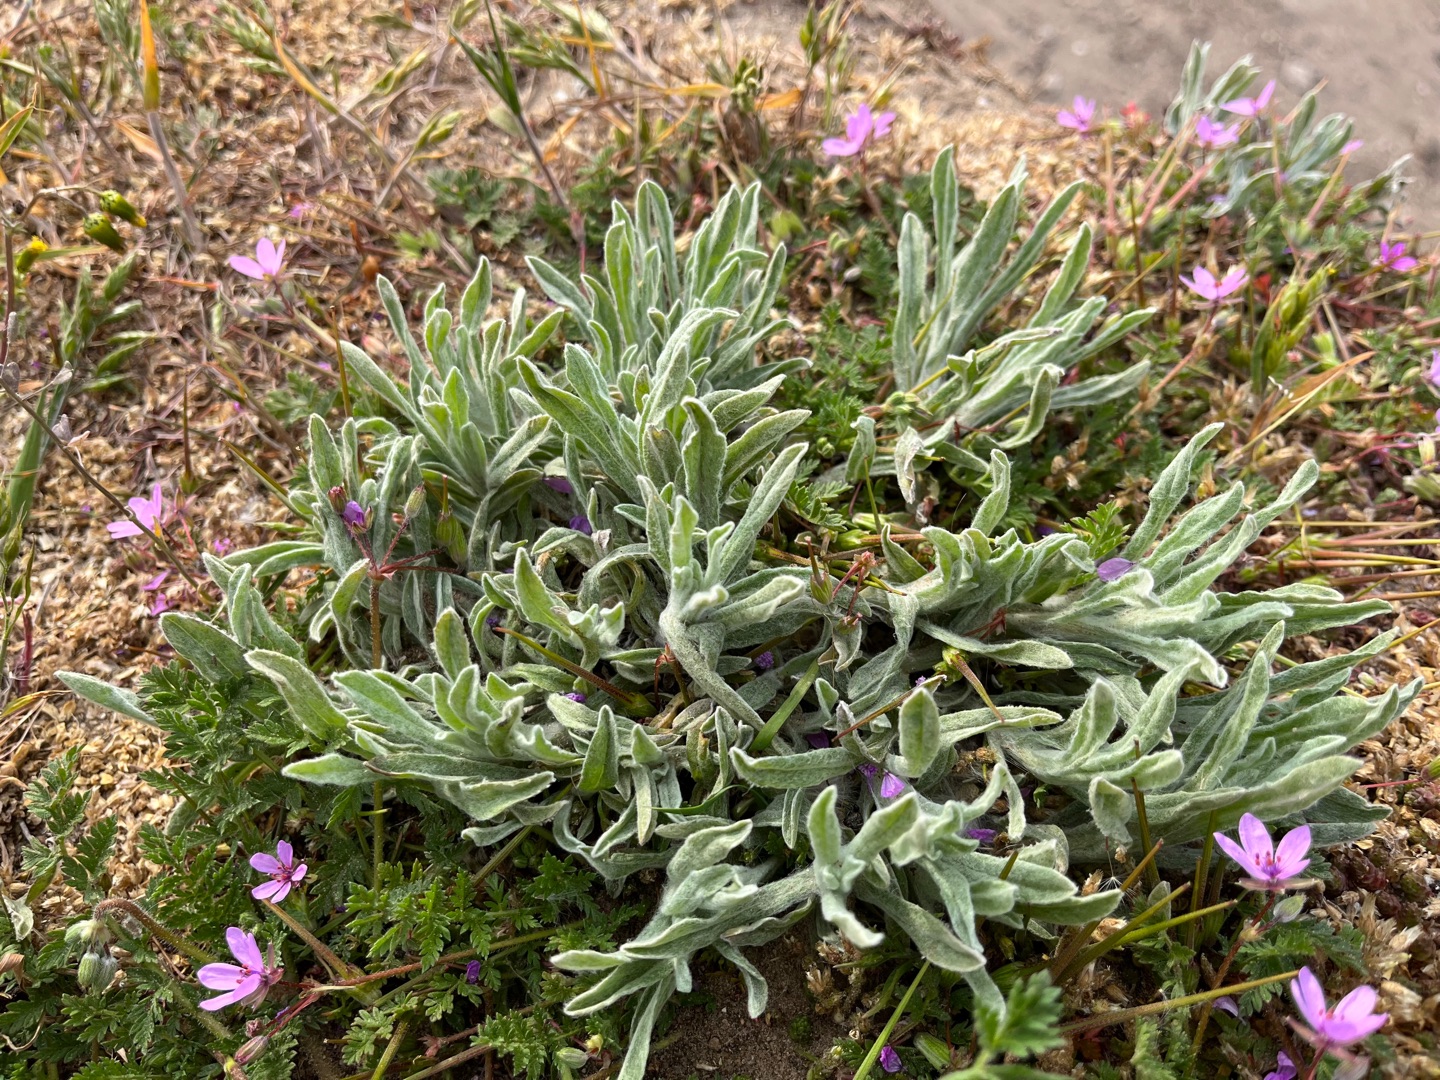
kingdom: Plantae
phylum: Tracheophyta
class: Magnoliopsida
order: Asterales
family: Asteraceae
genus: Helichrysum
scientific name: Helichrysum arenarium
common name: Gul evighedsblomst
